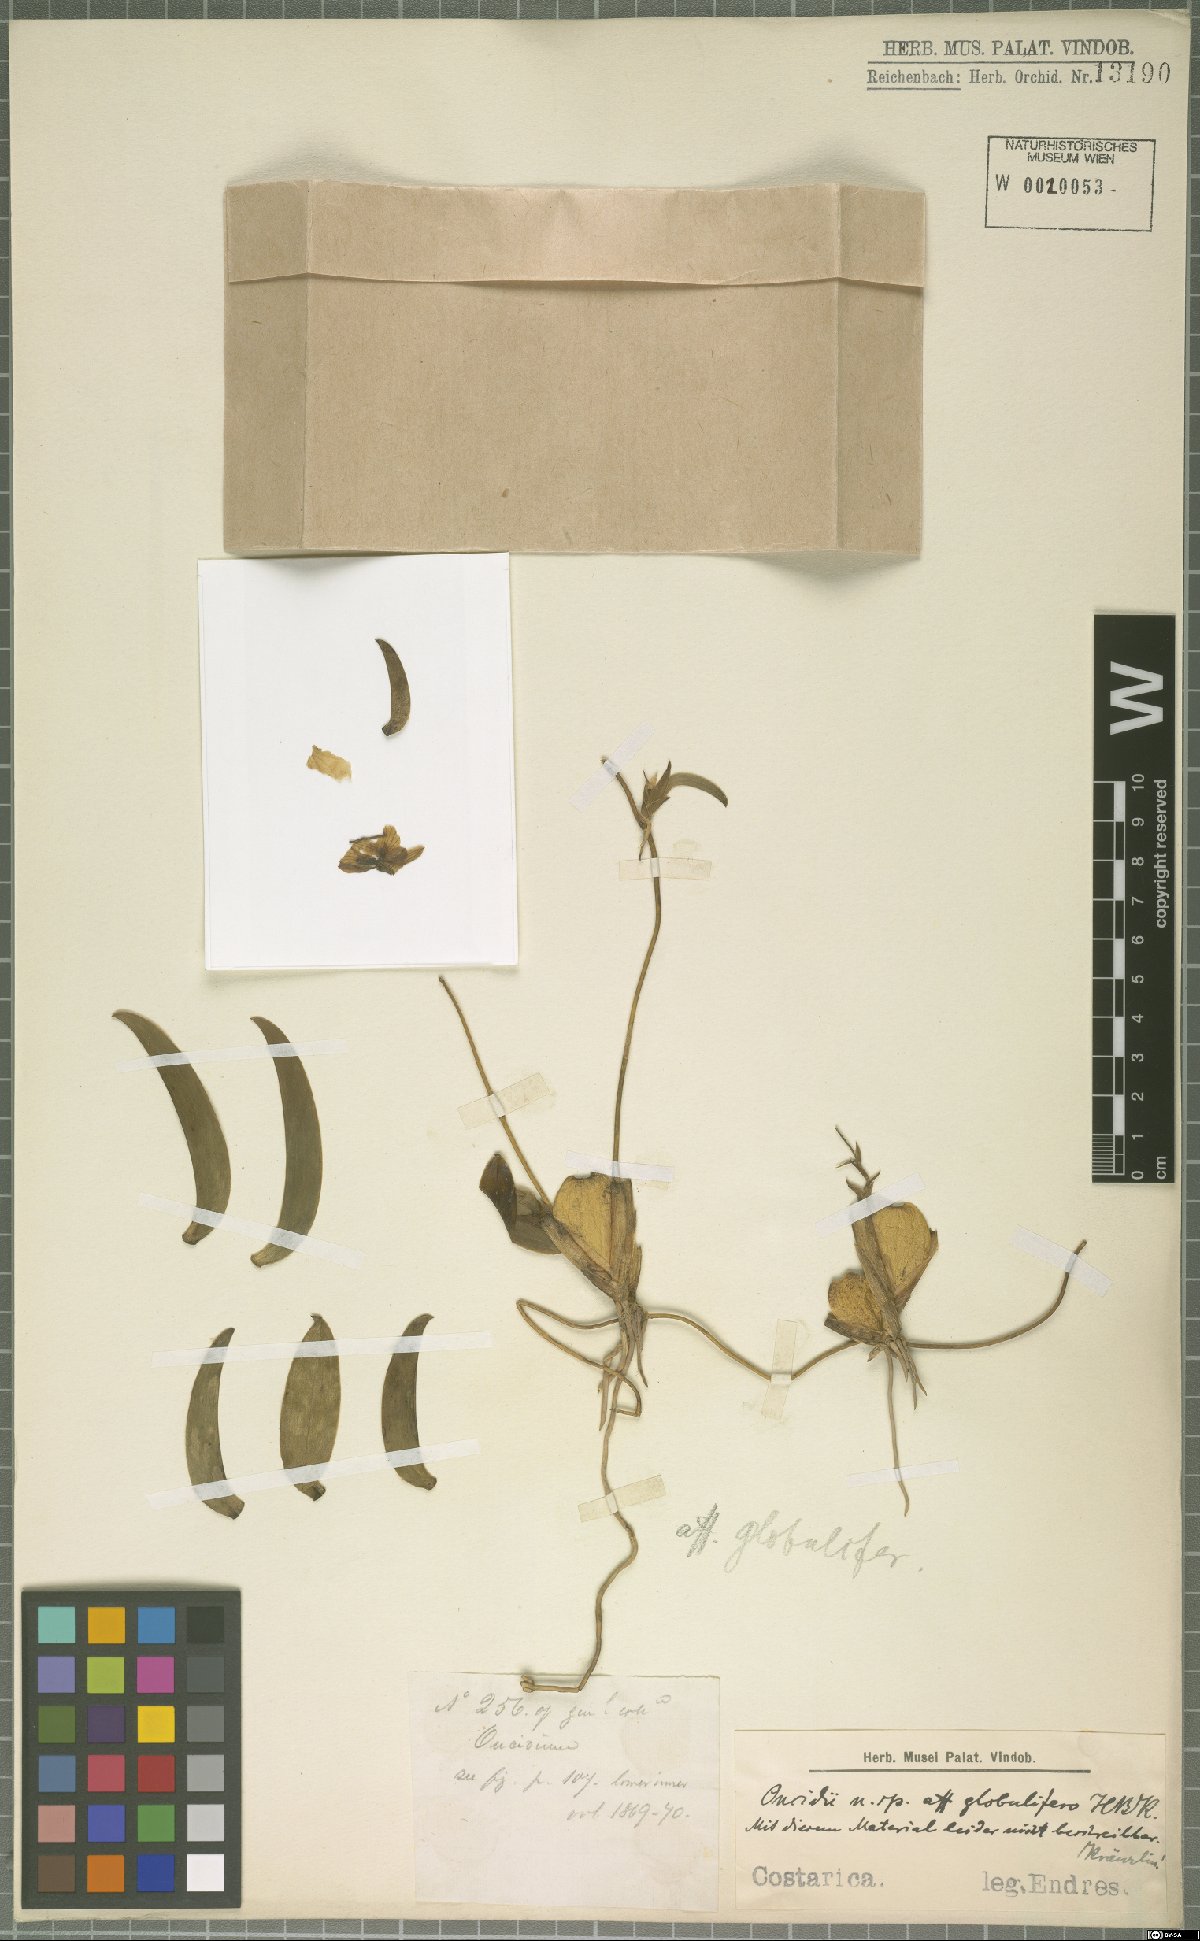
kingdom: Plantae
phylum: Tracheophyta
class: Liliopsida
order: Asparagales
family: Orchidaceae
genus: Otoglossum
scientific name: Otoglossum globuliferum
